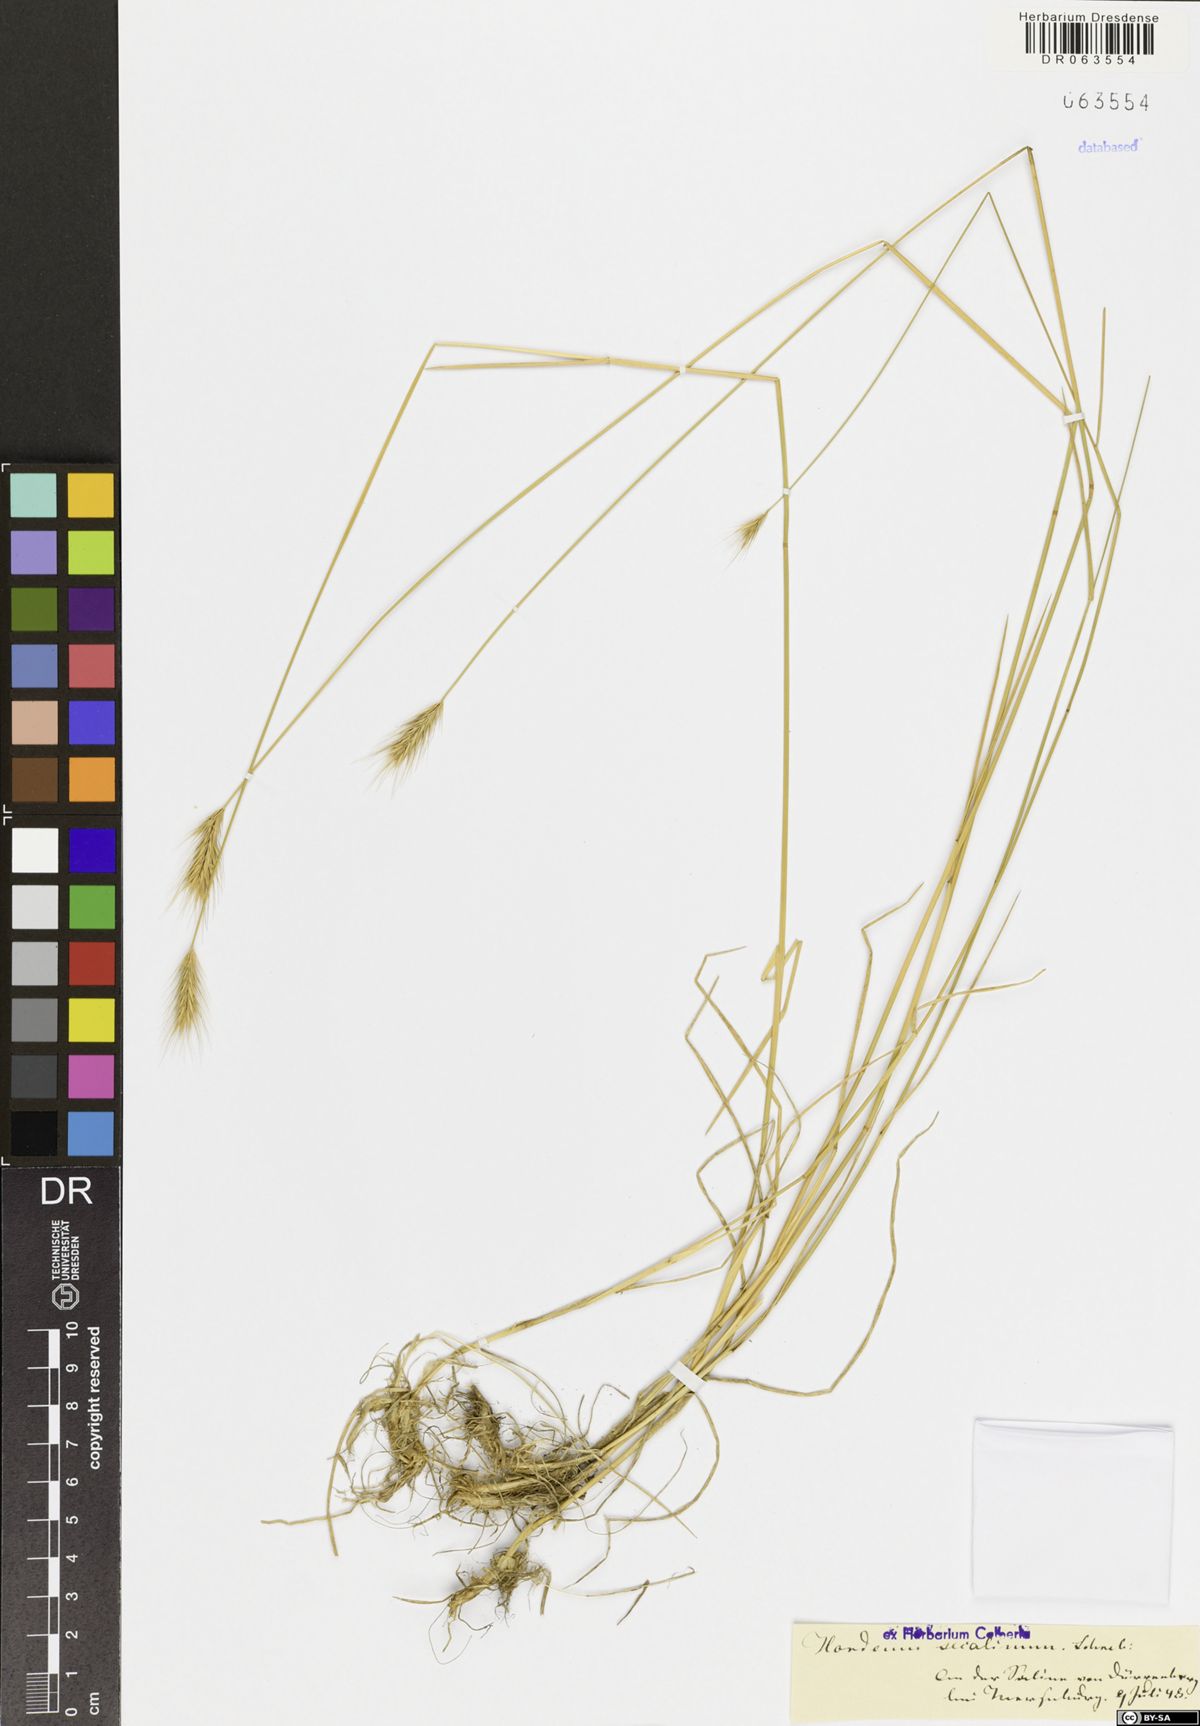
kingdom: Plantae
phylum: Tracheophyta
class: Liliopsida
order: Poales
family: Poaceae
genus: Hordeum
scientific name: Hordeum secalinum
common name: Meadow barley
